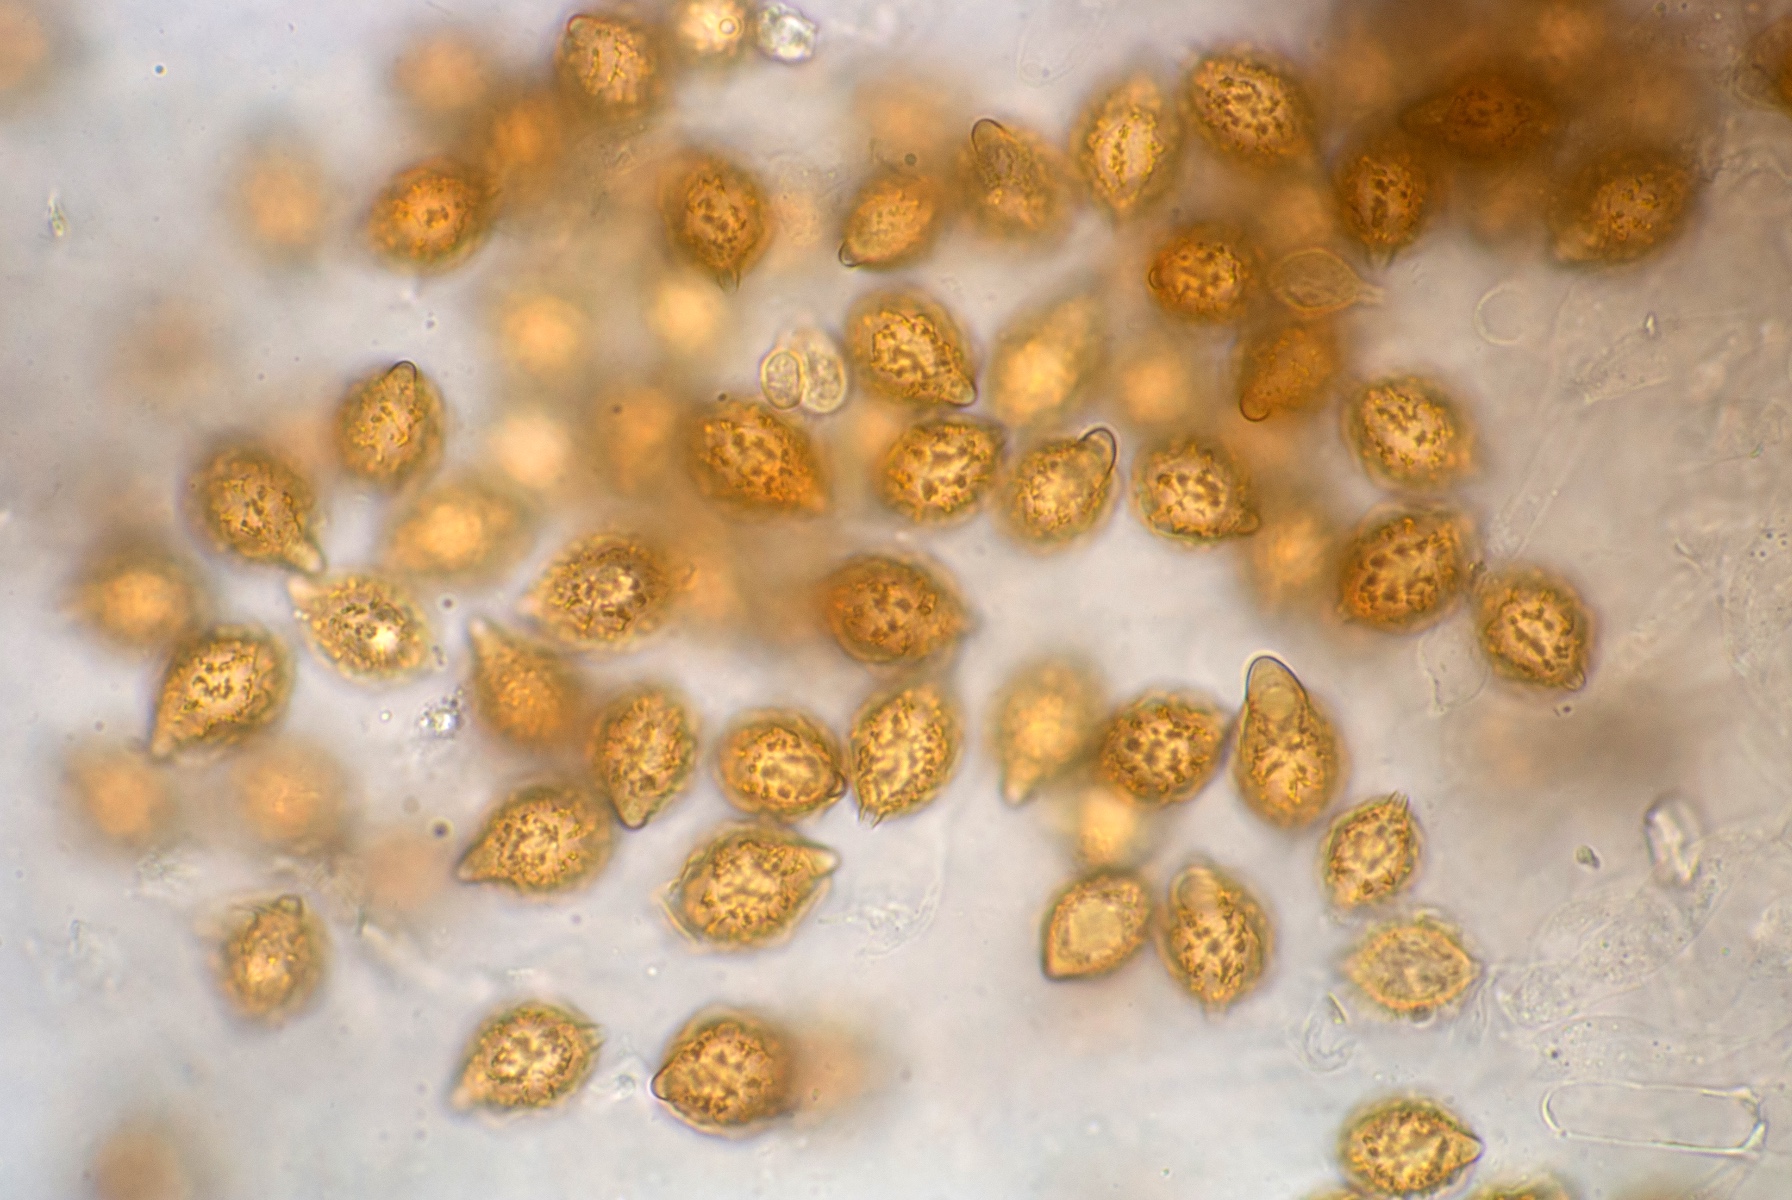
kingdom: Fungi
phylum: Basidiomycota
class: Agaricomycetes
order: Agaricales
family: Hymenogastraceae
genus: Hymenogaster
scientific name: Hymenogaster
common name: knoldtrøffel
